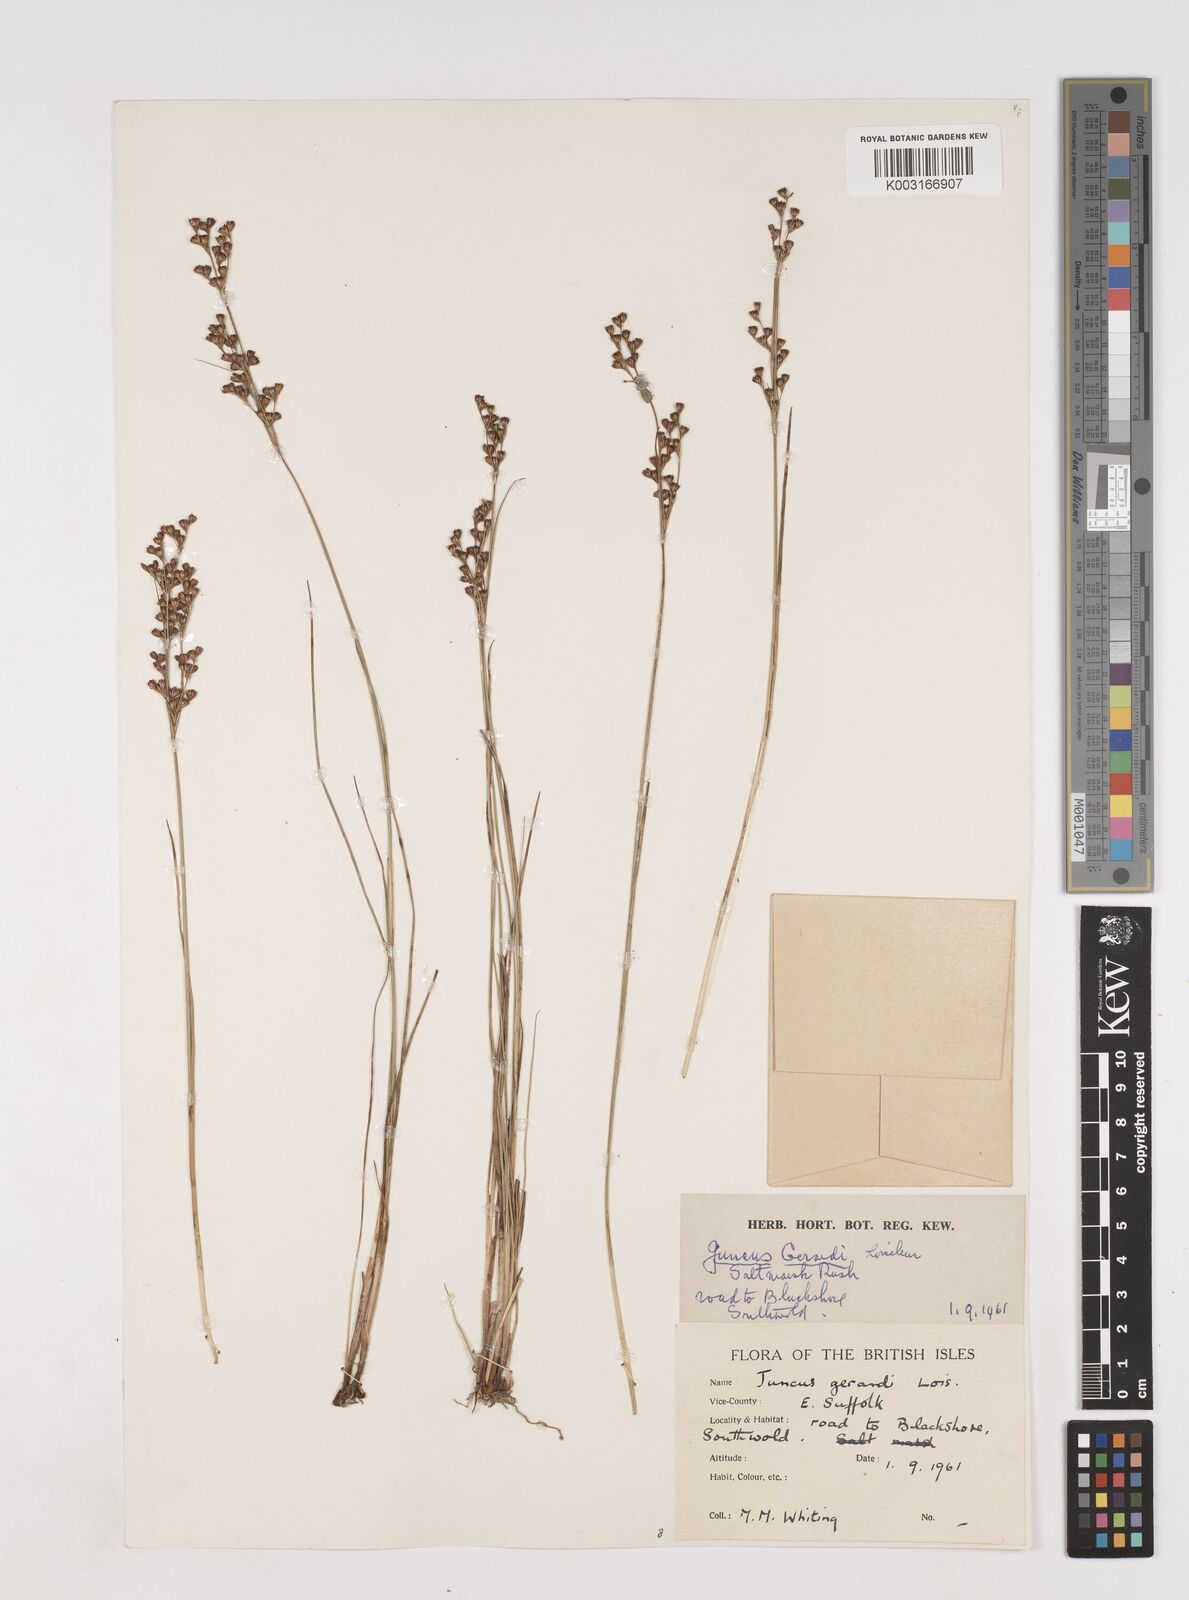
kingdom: Plantae
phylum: Tracheophyta
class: Liliopsida
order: Poales
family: Juncaceae
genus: Juncus
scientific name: Juncus gerardi
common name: Saltmarsh rush
